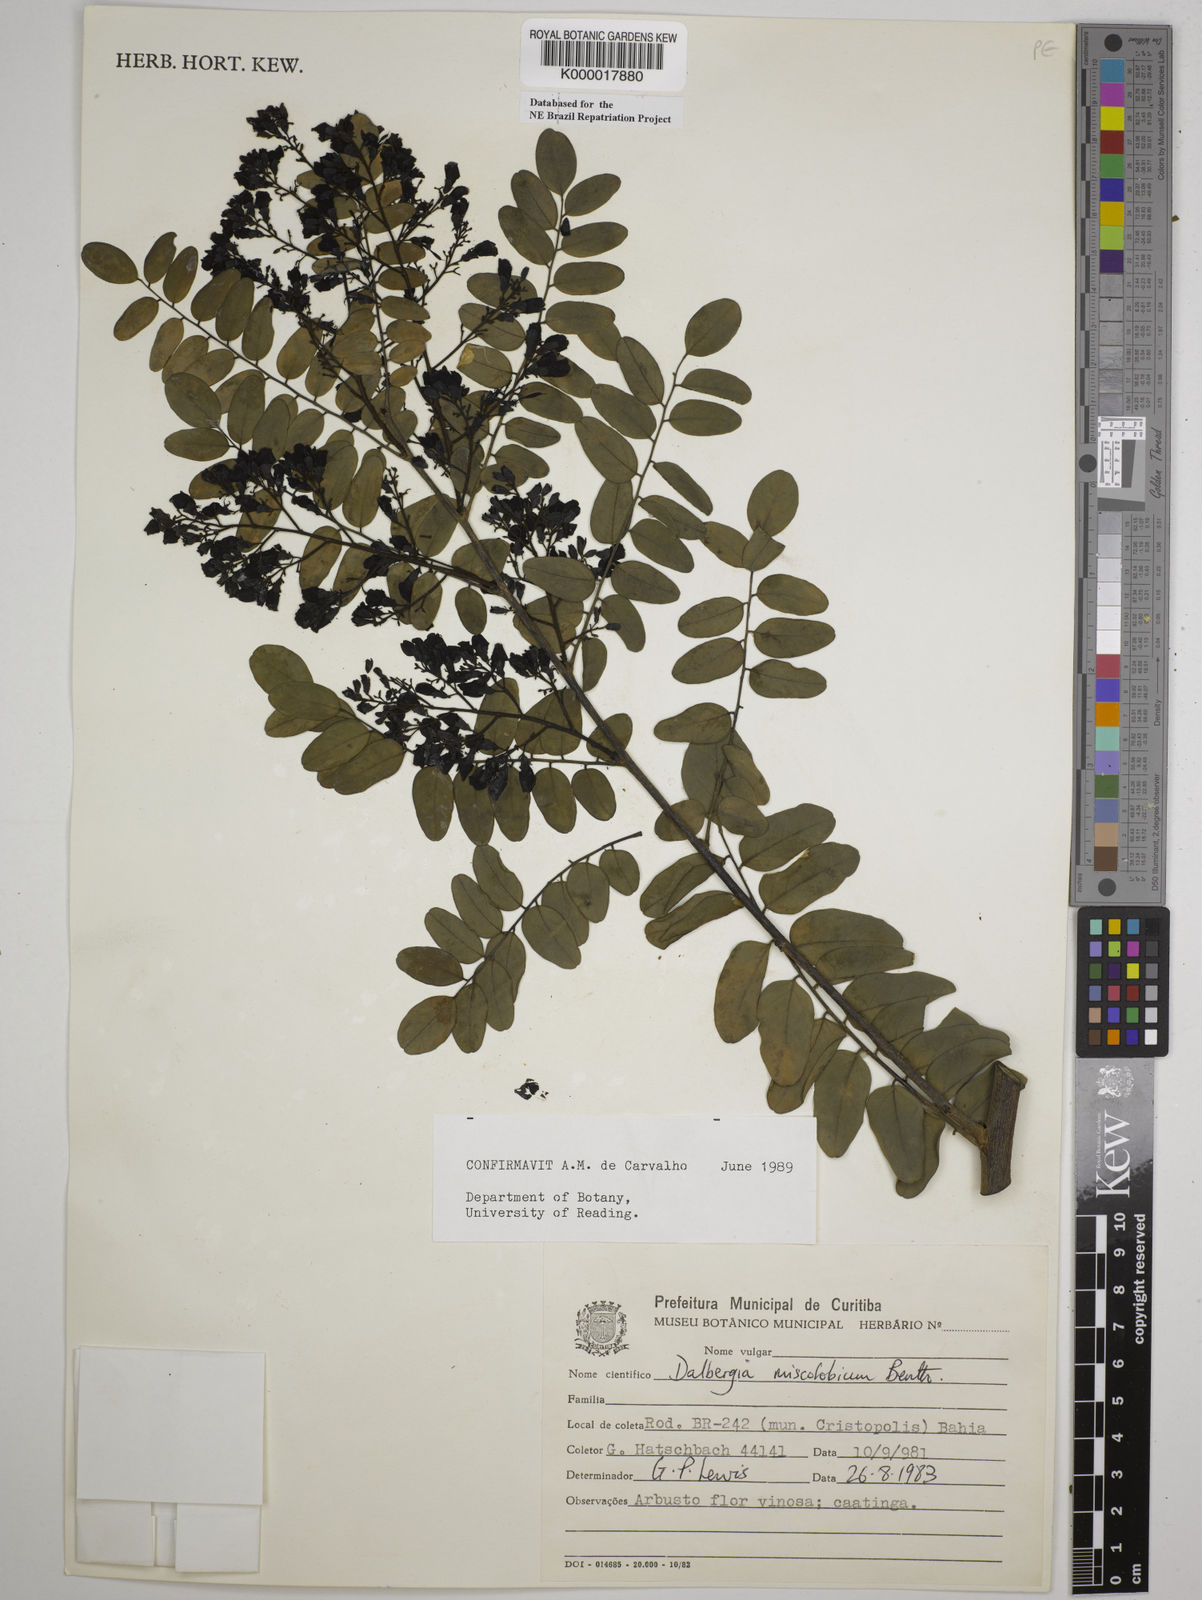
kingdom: Plantae
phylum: Tracheophyta
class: Magnoliopsida
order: Fabales
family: Fabaceae
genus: Dalbergia
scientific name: Dalbergia miscolobium
